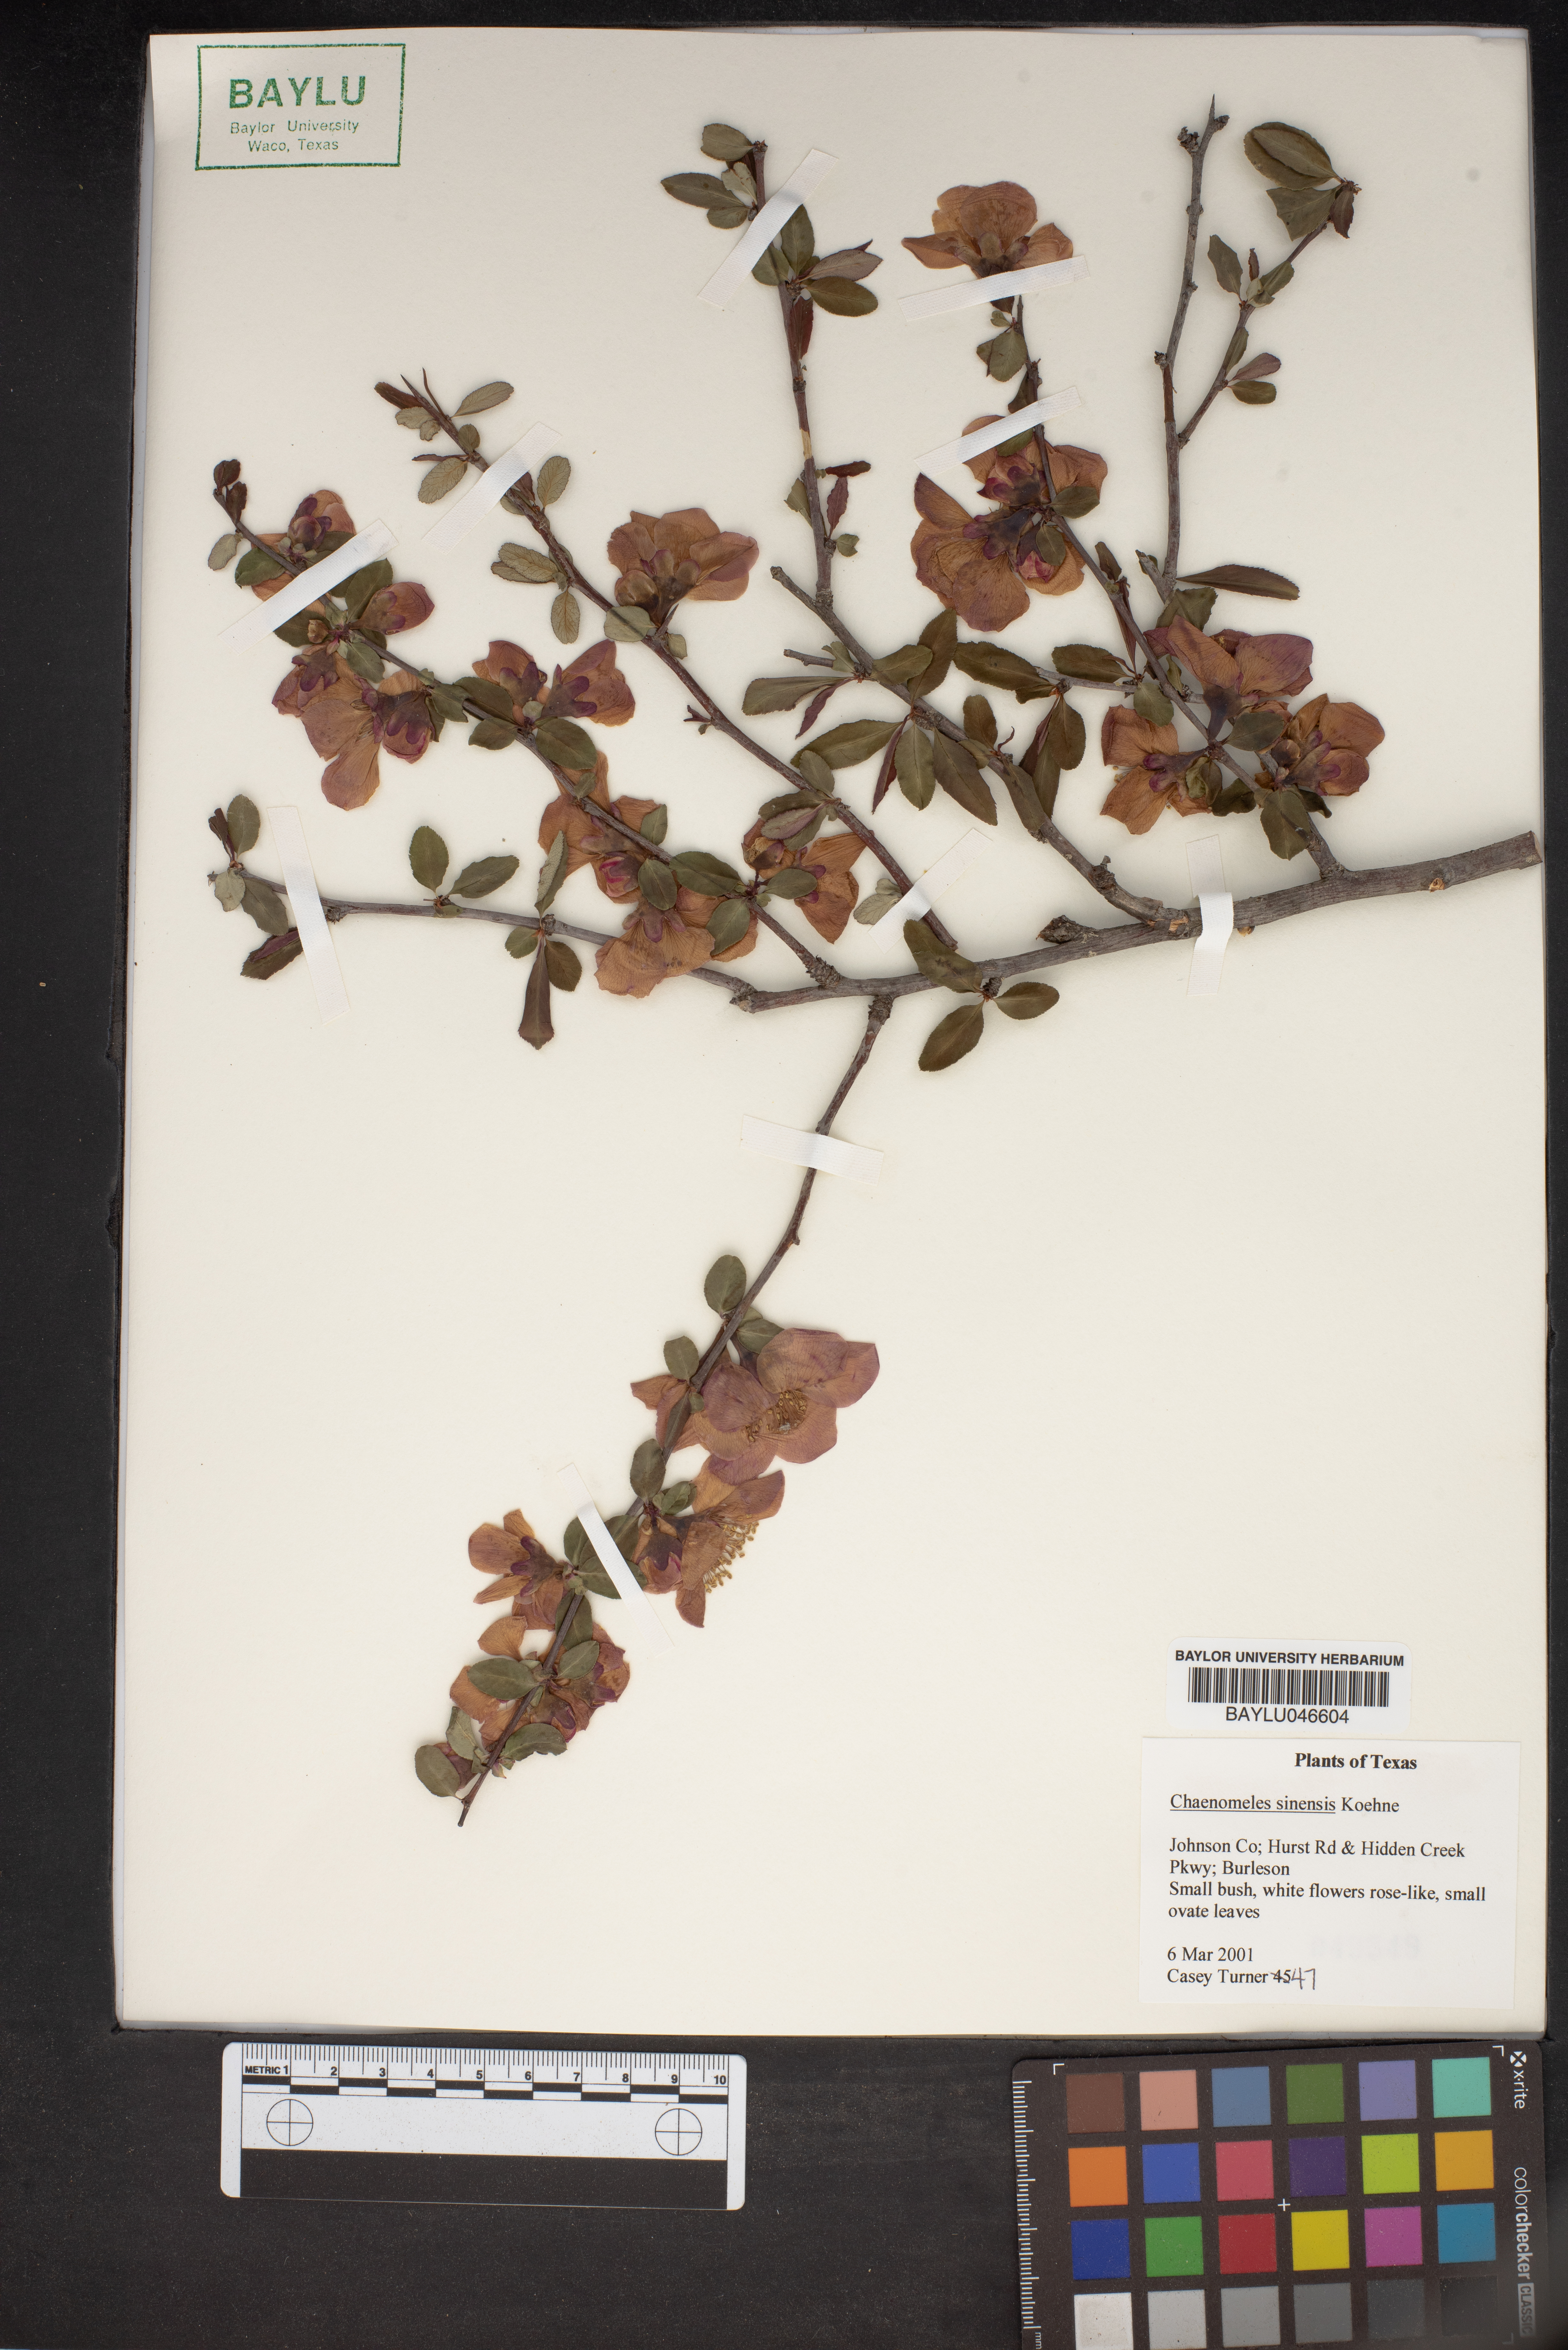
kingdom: Plantae
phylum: Tracheophyta
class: Magnoliopsida
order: Rosales
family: Rosaceae
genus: Pseudocydonia
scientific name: Pseudocydonia sinensis
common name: Chinese-quince
